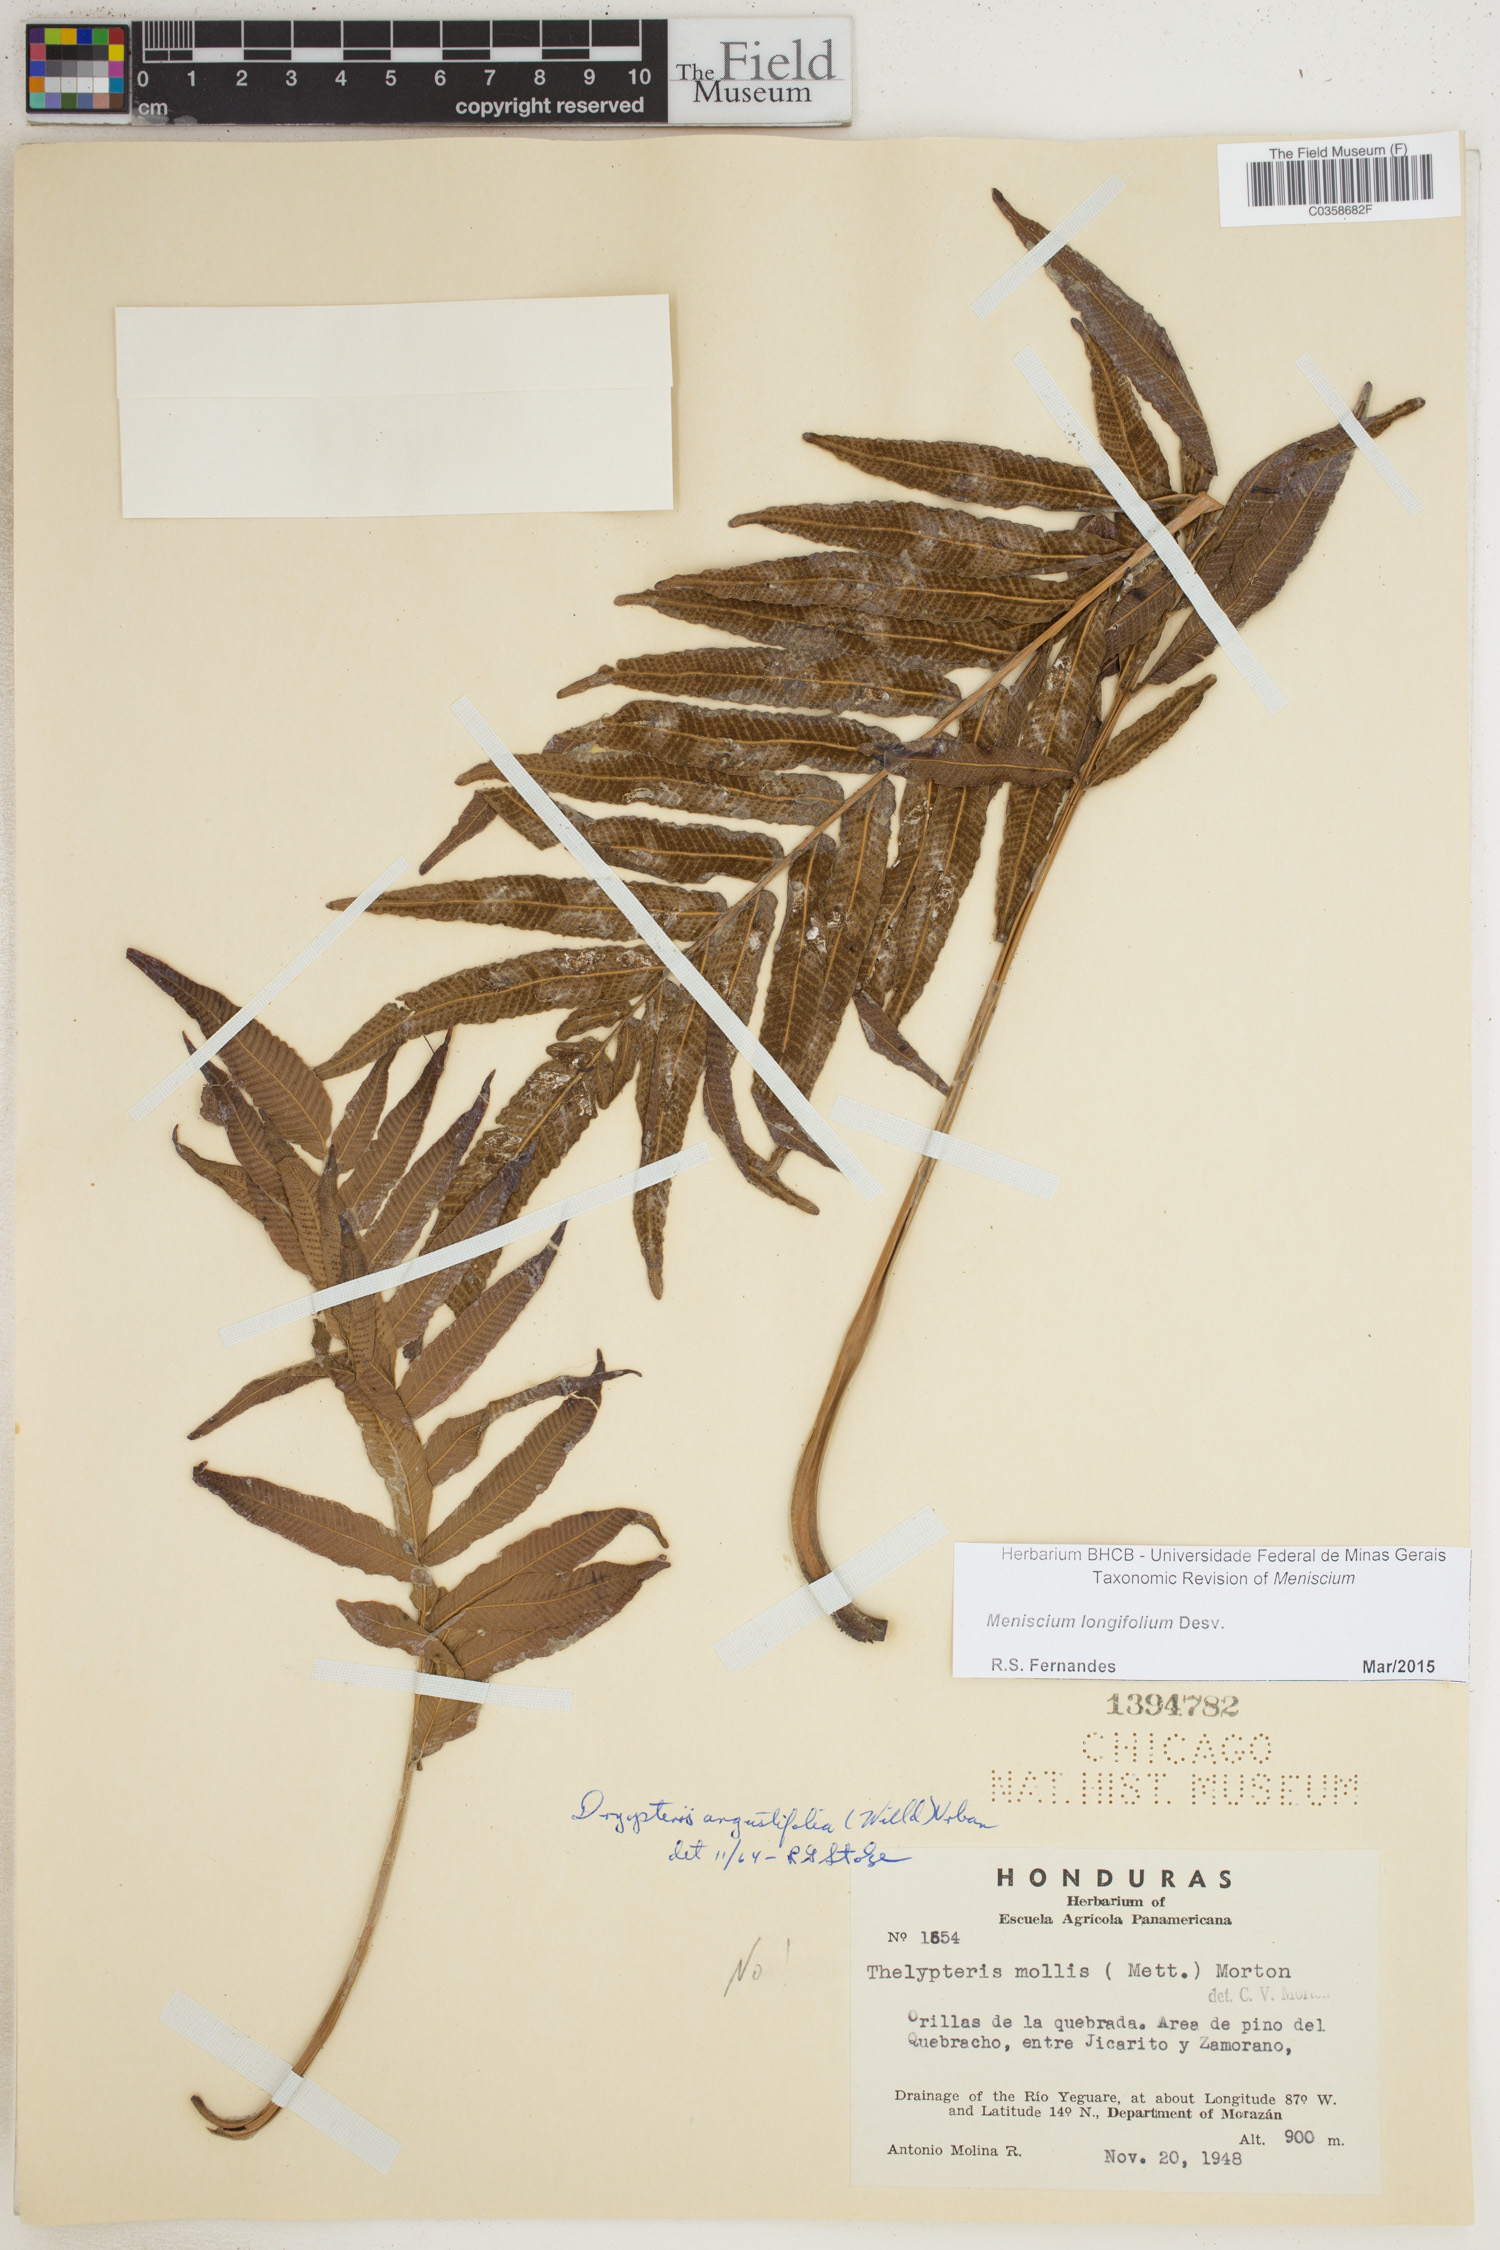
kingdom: Plantae
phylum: Tracheophyta
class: Polypodiopsida
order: Polypodiales
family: Thelypteridaceae
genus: Meniscium
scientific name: Meniscium longifolium
